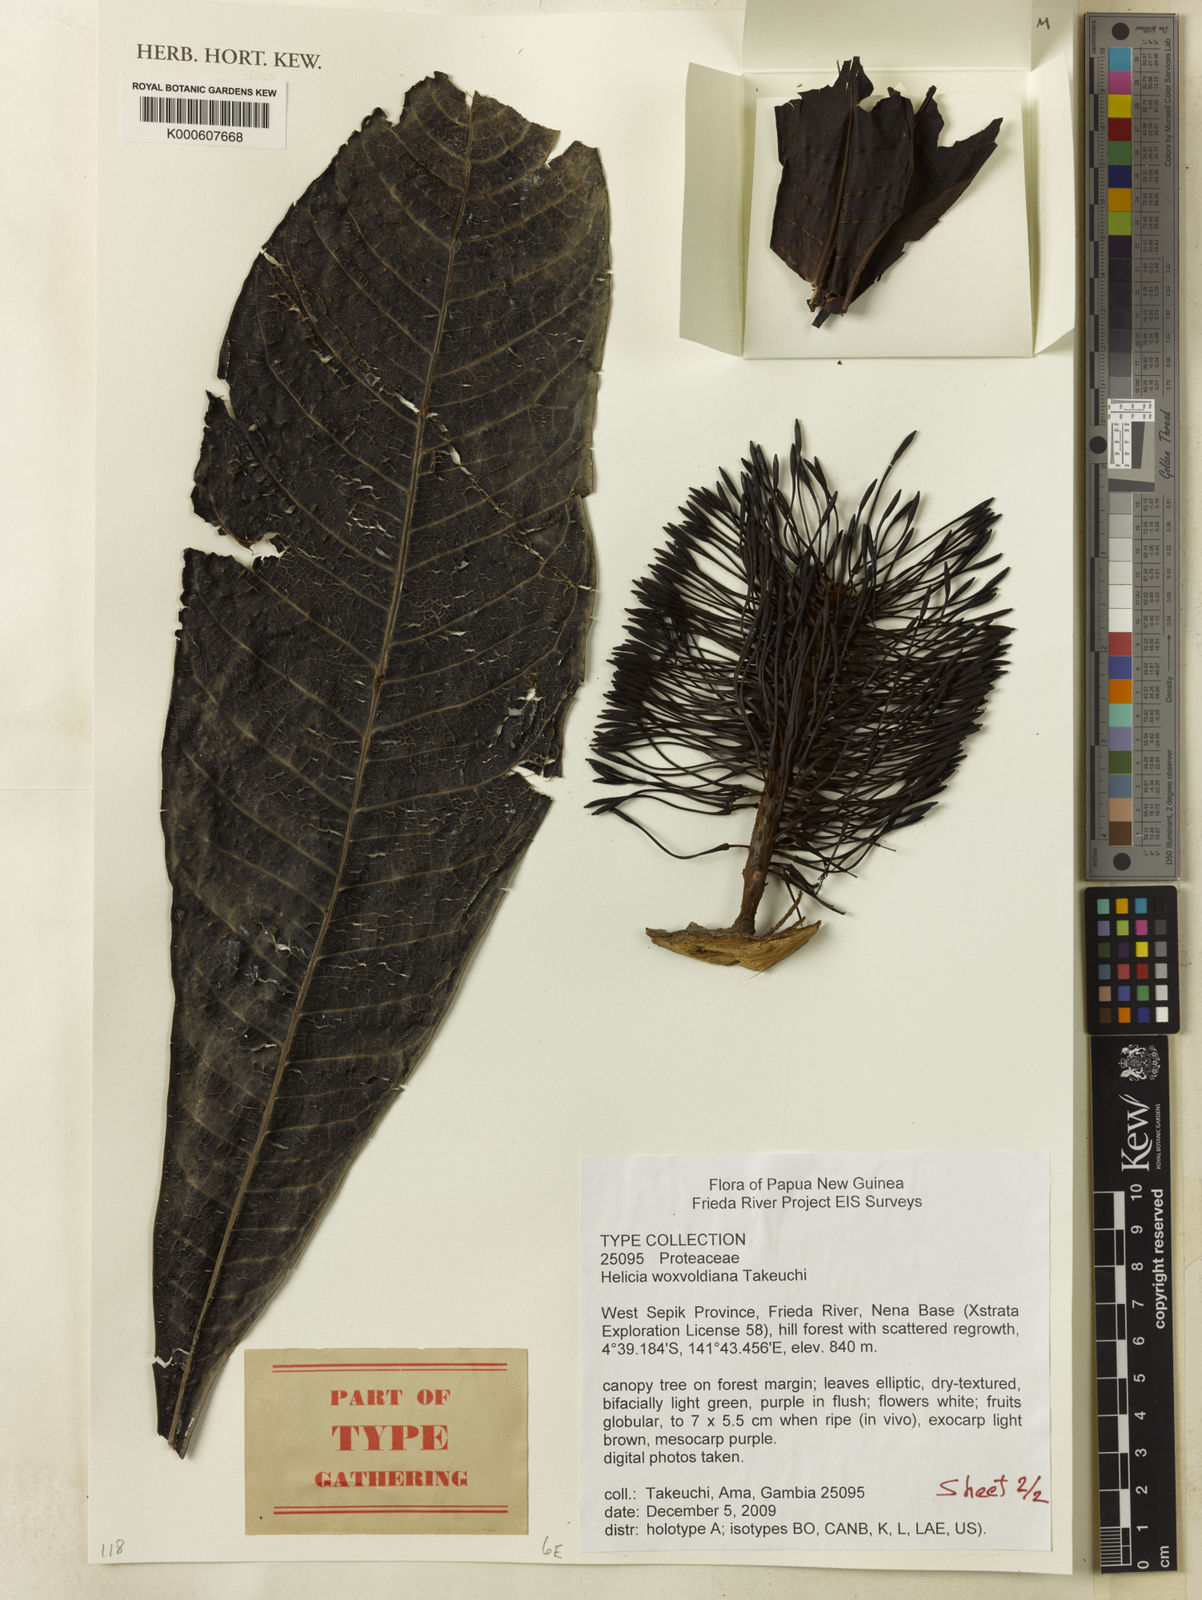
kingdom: Plantae
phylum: Tracheophyta
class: Magnoliopsida
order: Proteales
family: Proteaceae
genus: Helicia
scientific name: Helicia woxvoldiana
